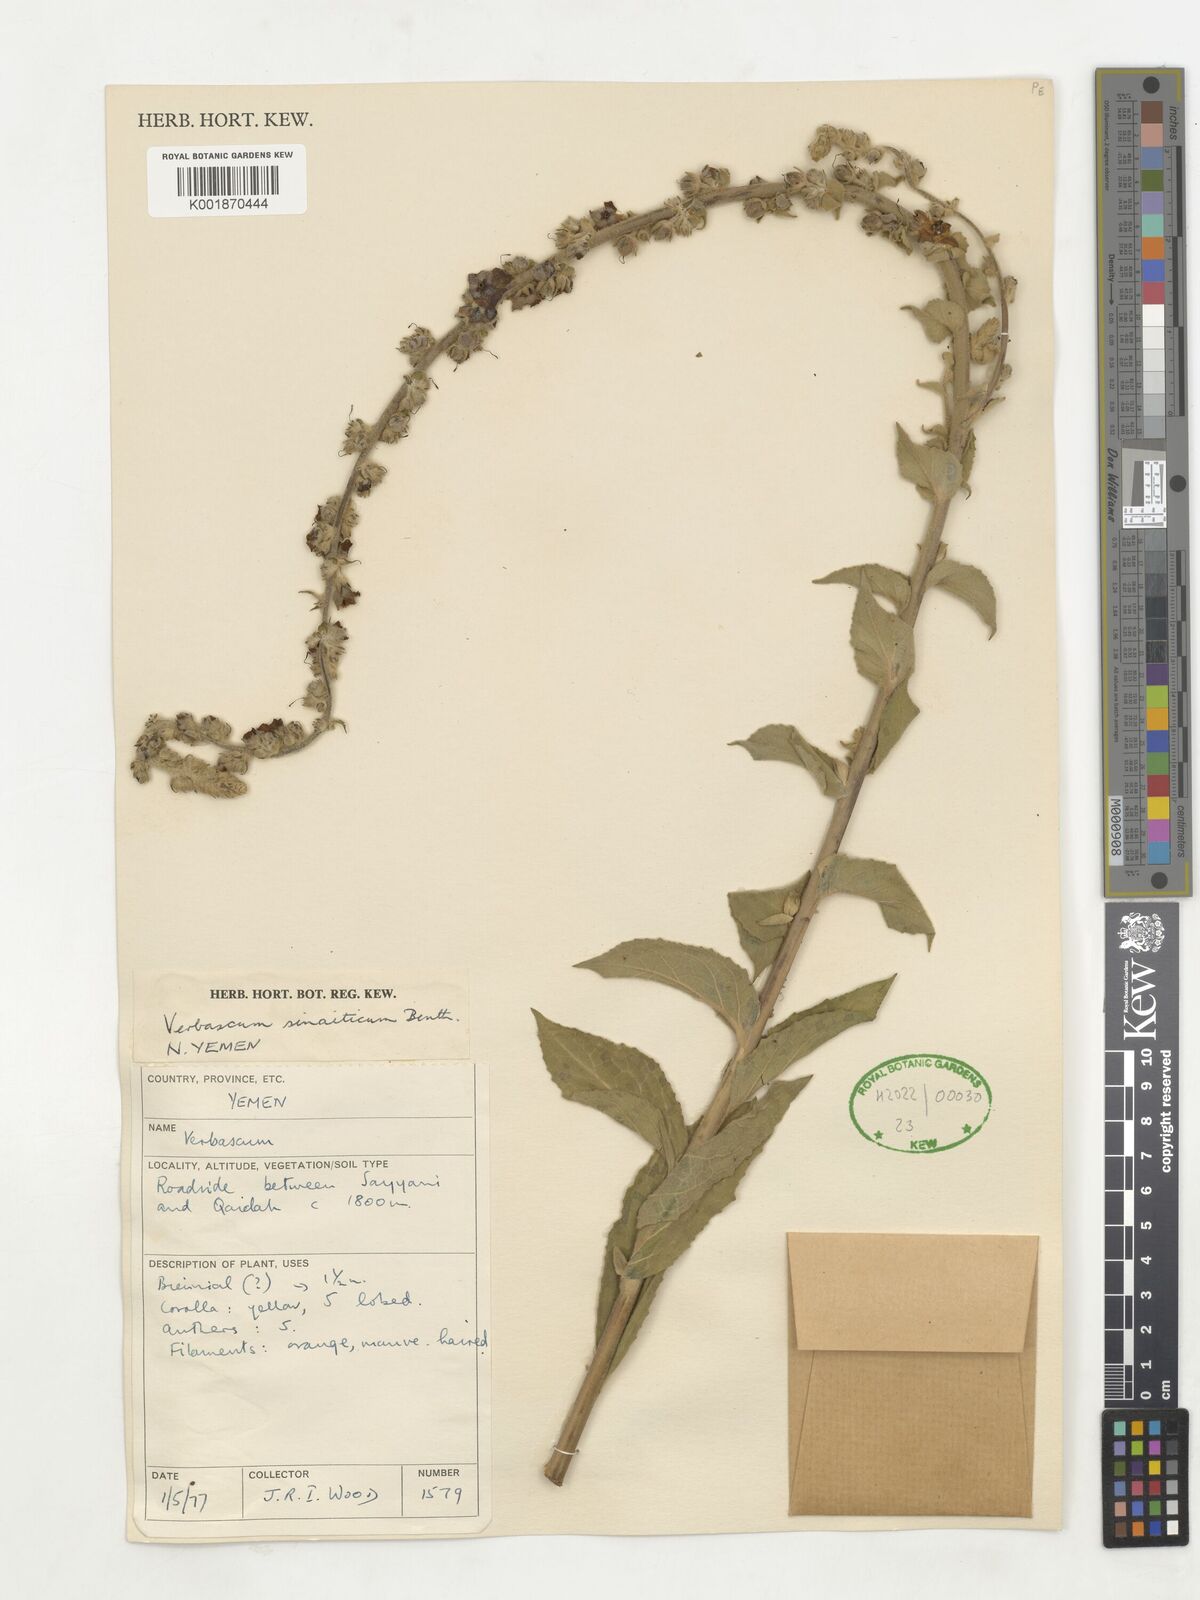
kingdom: Plantae
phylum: Tracheophyta
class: Magnoliopsida
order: Lamiales
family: Scrophulariaceae
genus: Verbascum
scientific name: Verbascum sinaiticum
